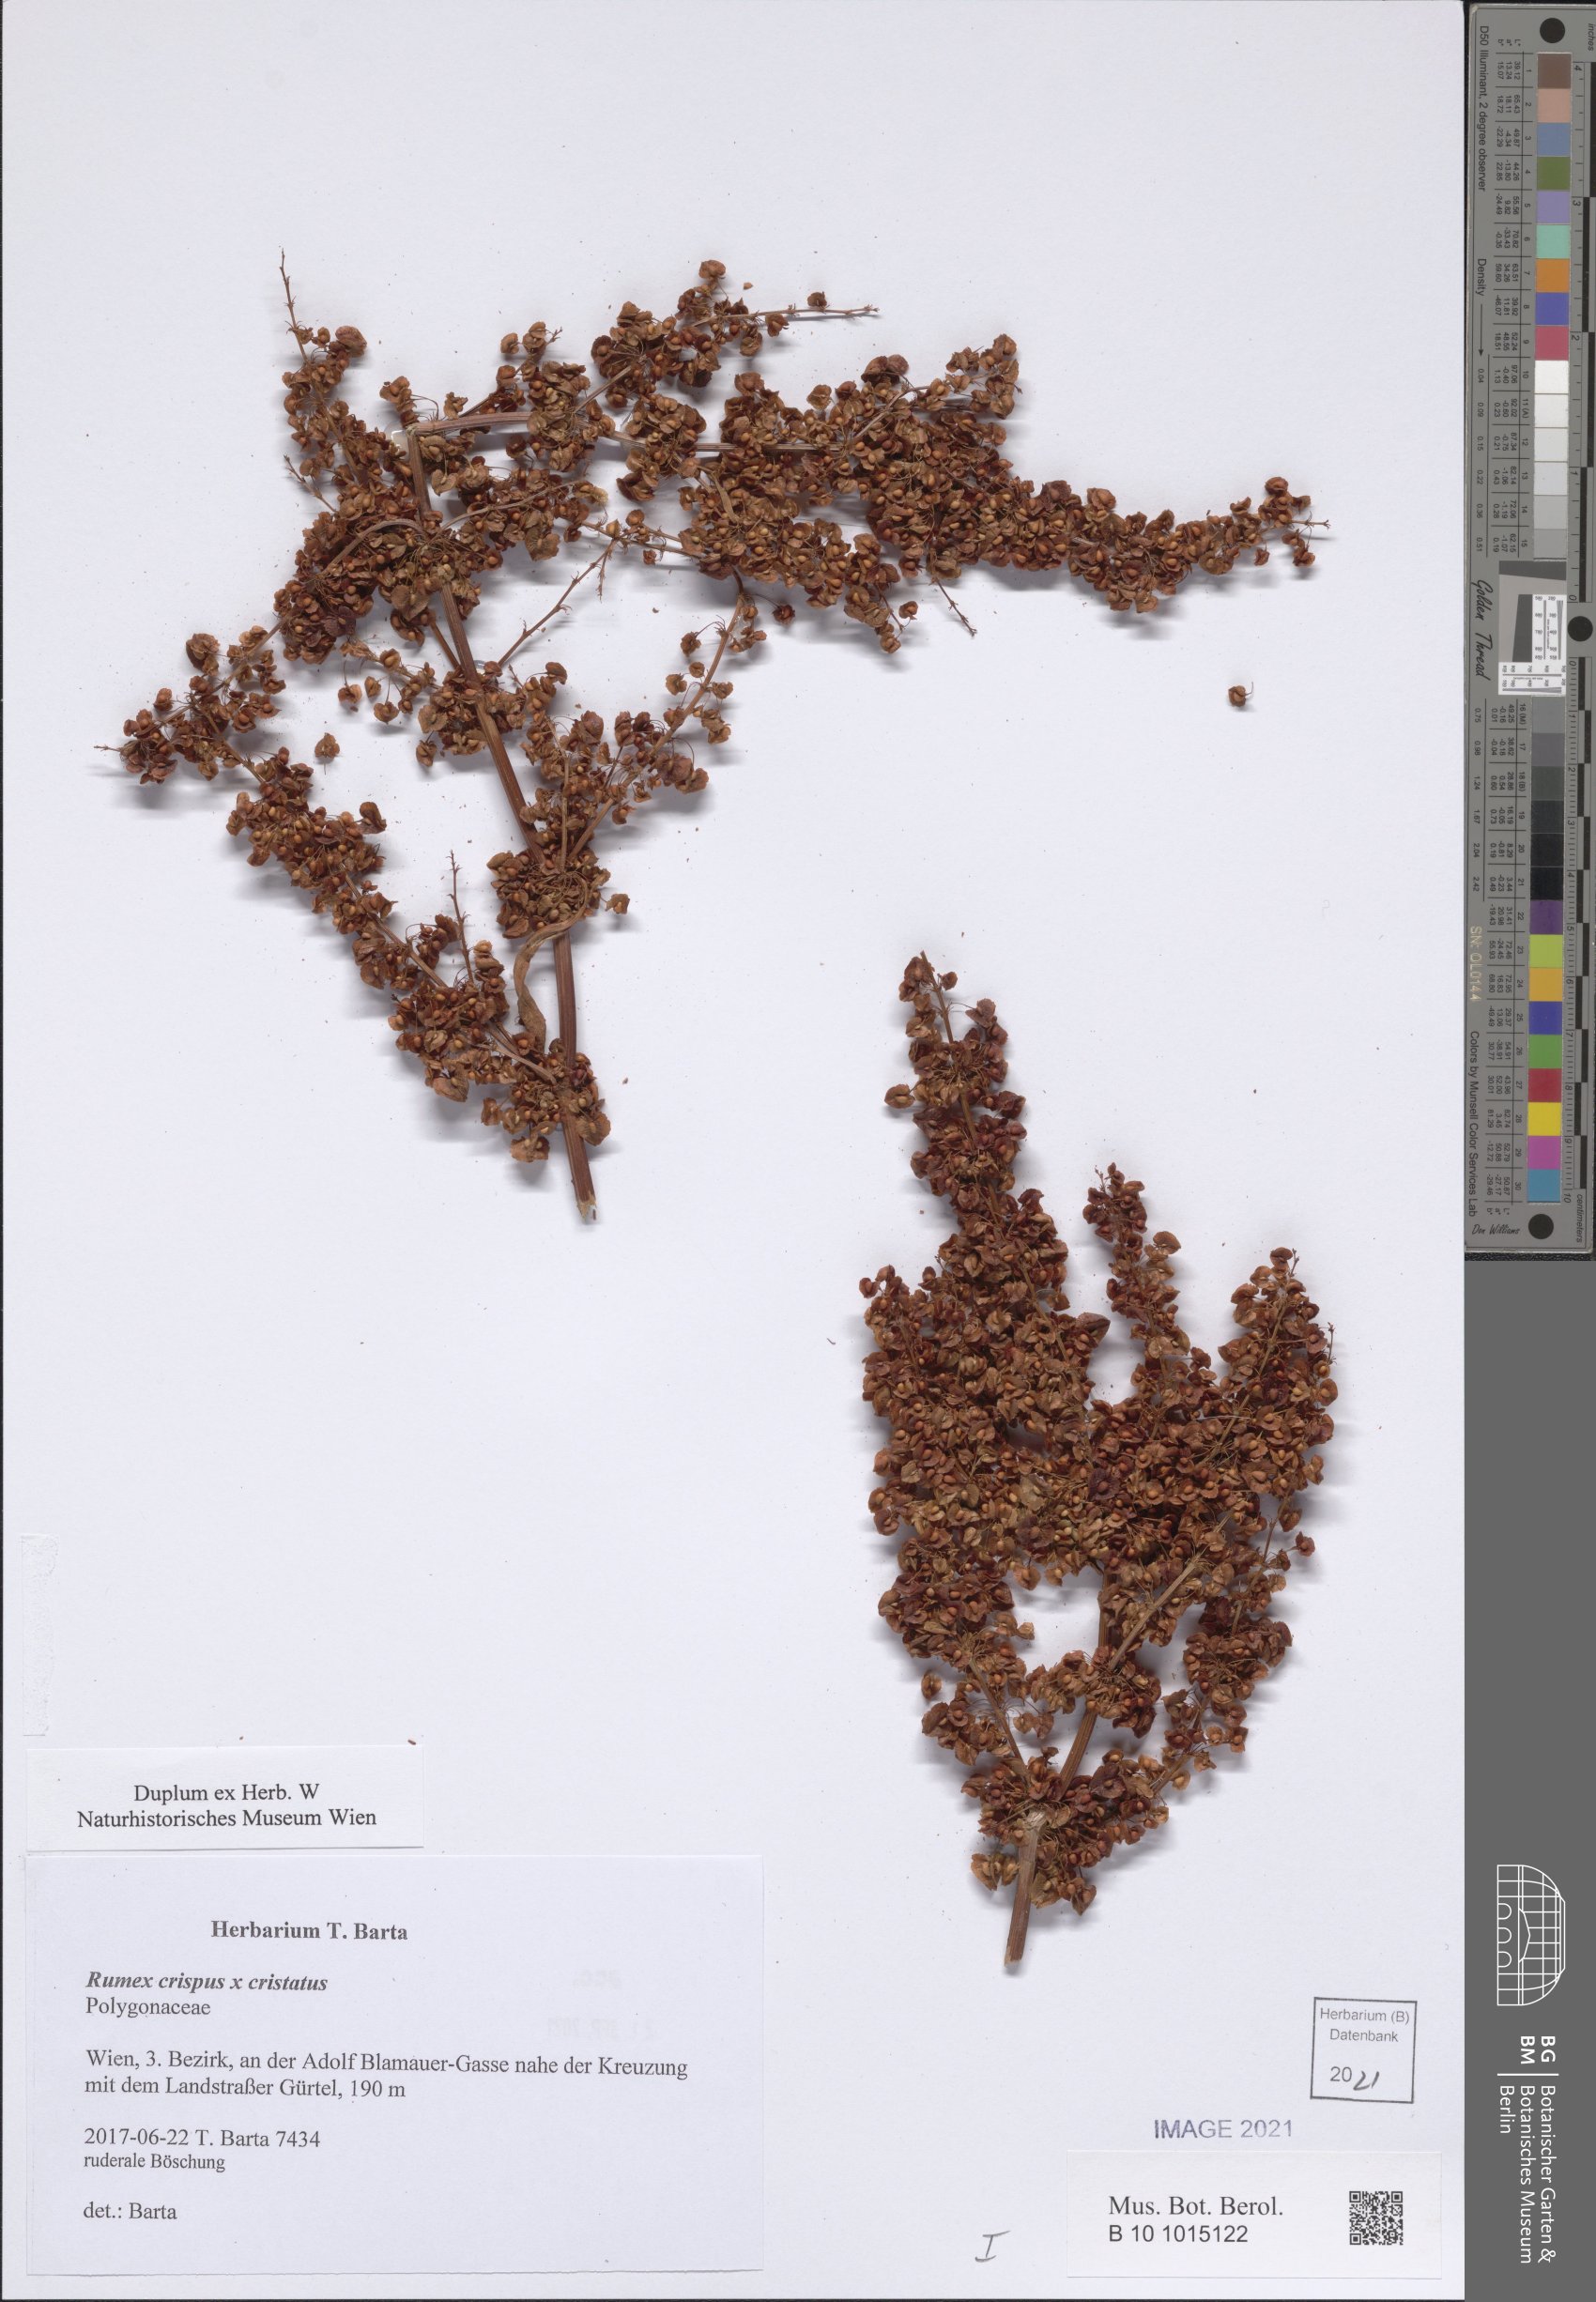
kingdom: Plantae
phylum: Tracheophyta
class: Magnoliopsida
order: Caryophyllales
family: Polygonaceae
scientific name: Polygonaceae
